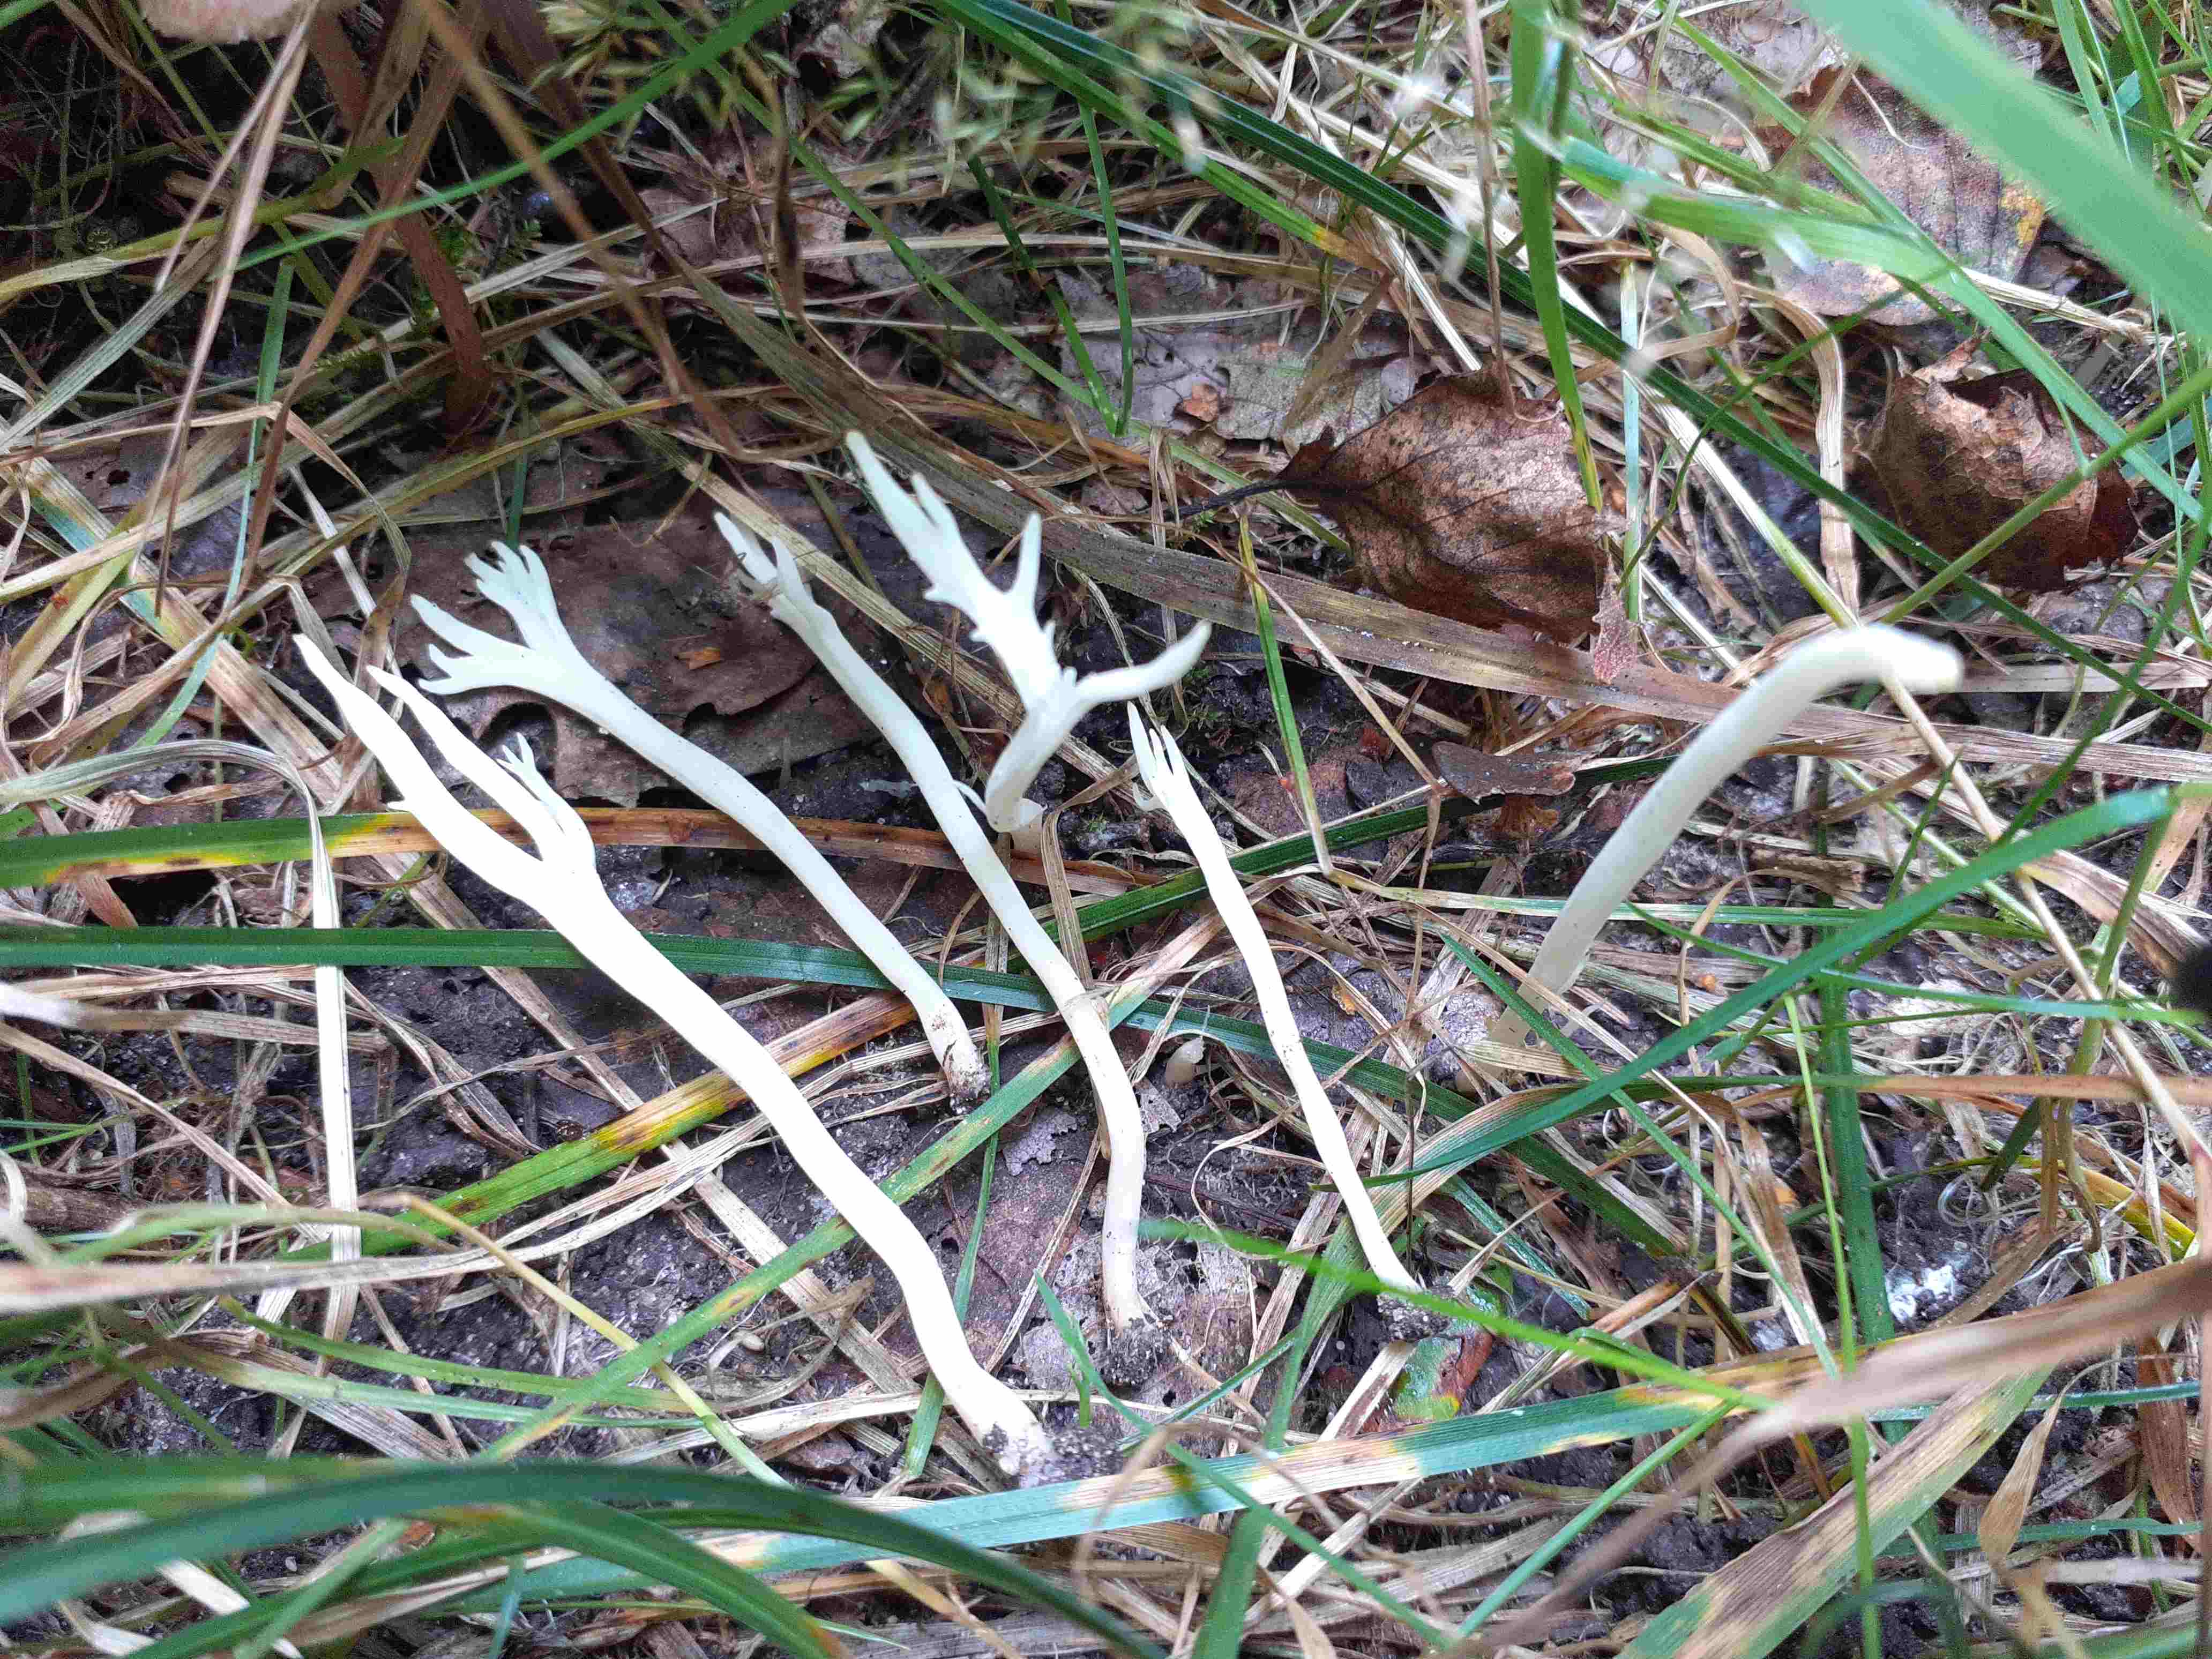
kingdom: Fungi
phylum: Basidiomycota
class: Agaricomycetes
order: Cantharellales
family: Hydnaceae
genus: Clavulina
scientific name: Clavulina rugosa
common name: rynket troldkølle
